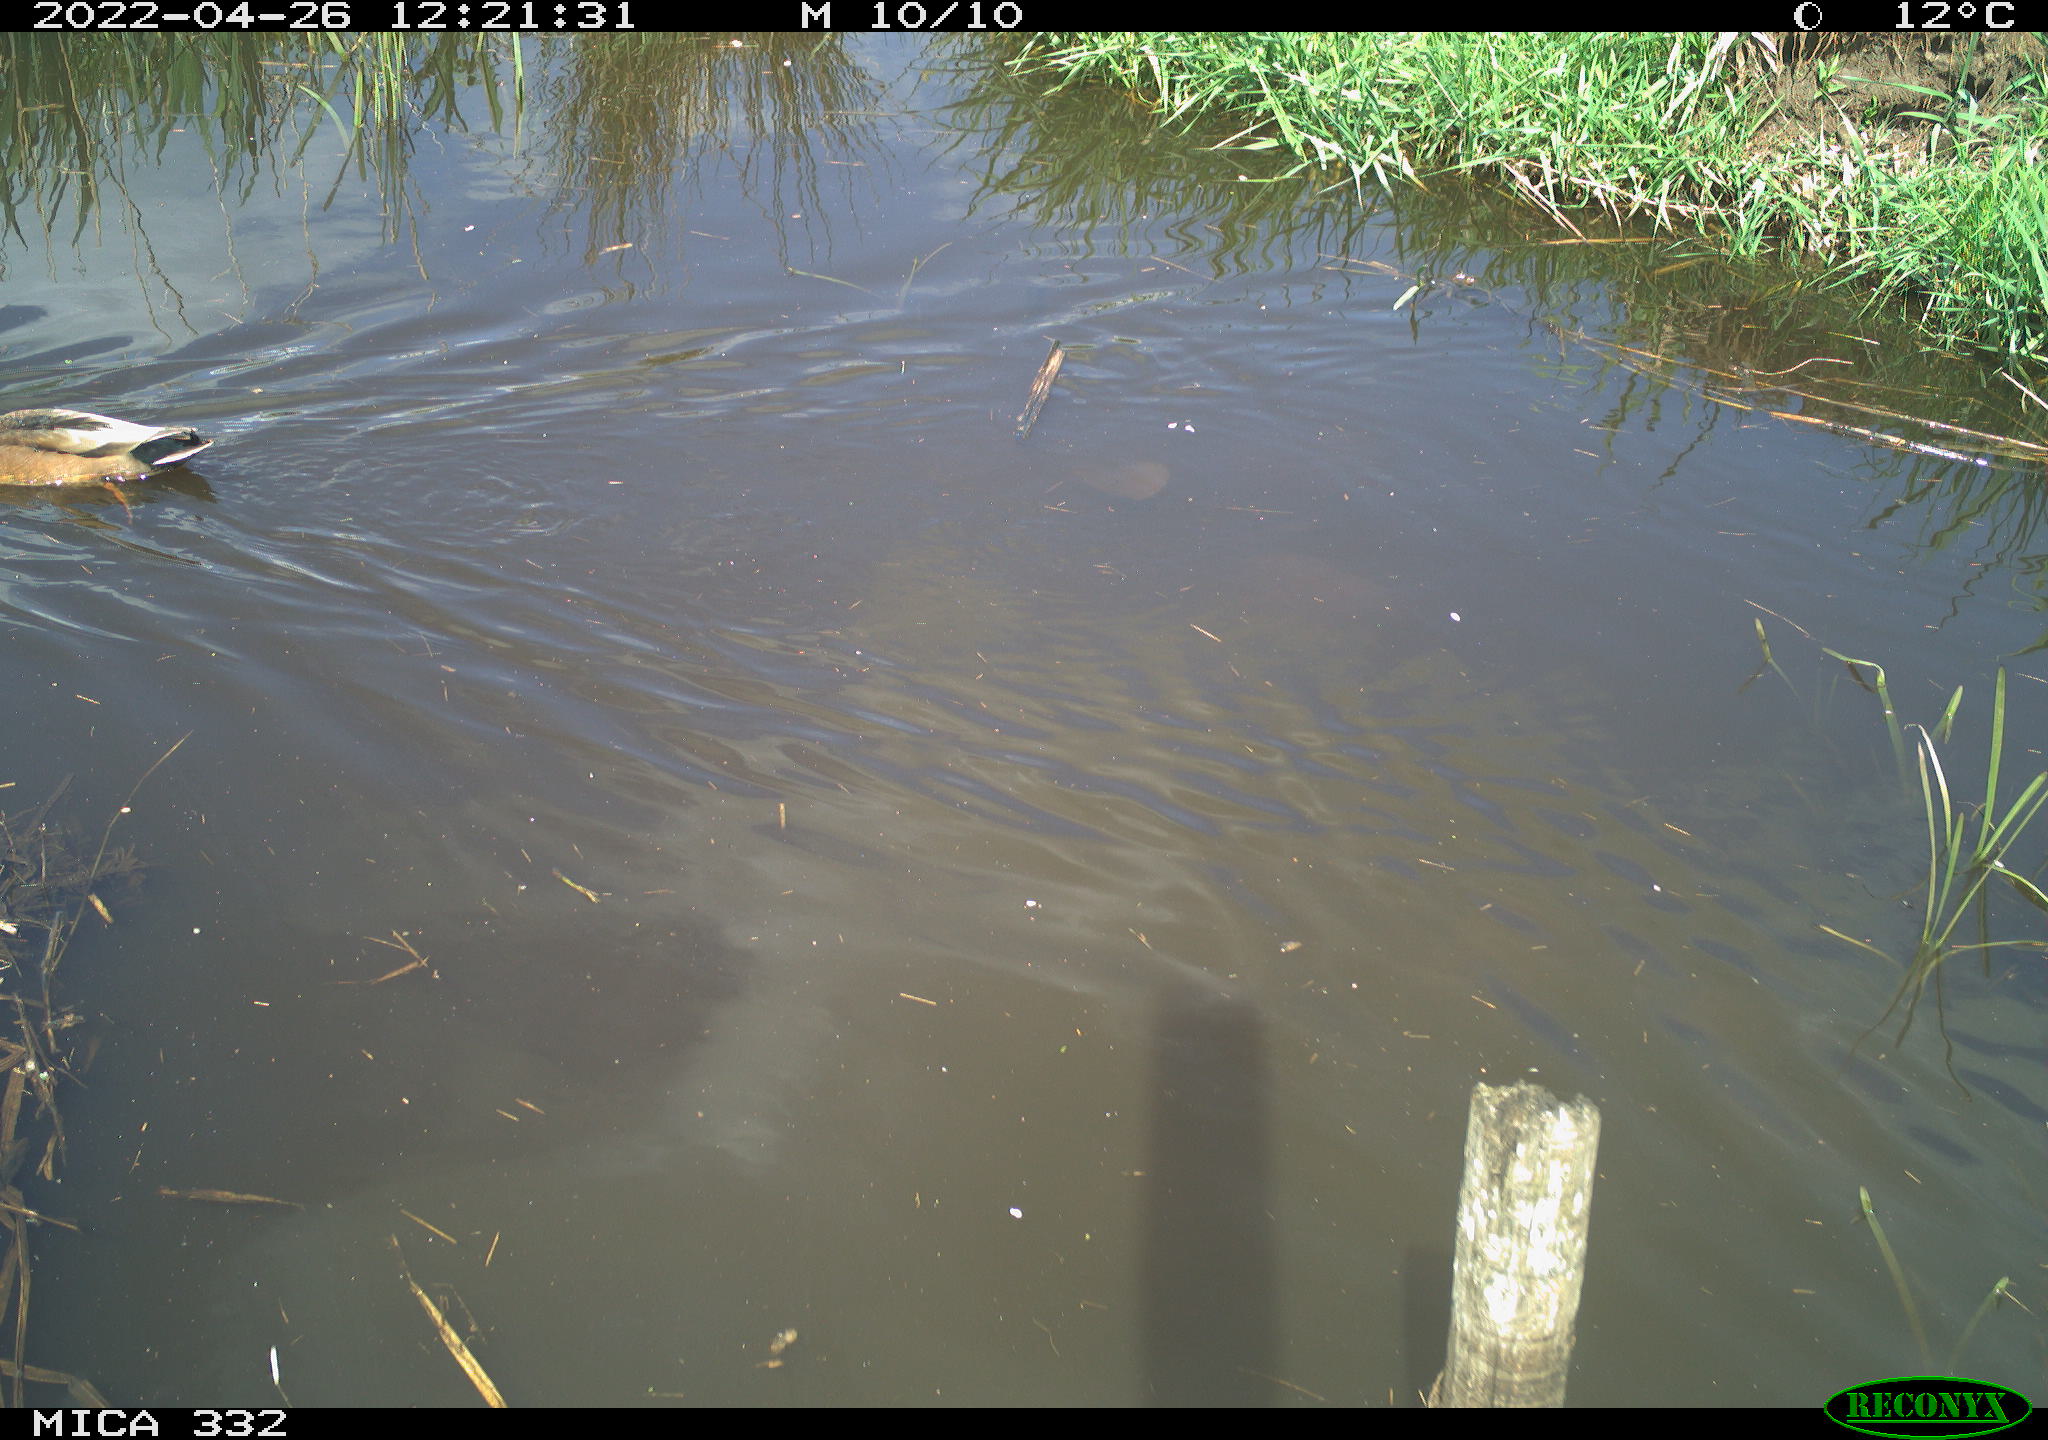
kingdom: Animalia
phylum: Chordata
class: Aves
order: Anseriformes
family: Anatidae
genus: Anas
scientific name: Anas platyrhynchos
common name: Mallard
